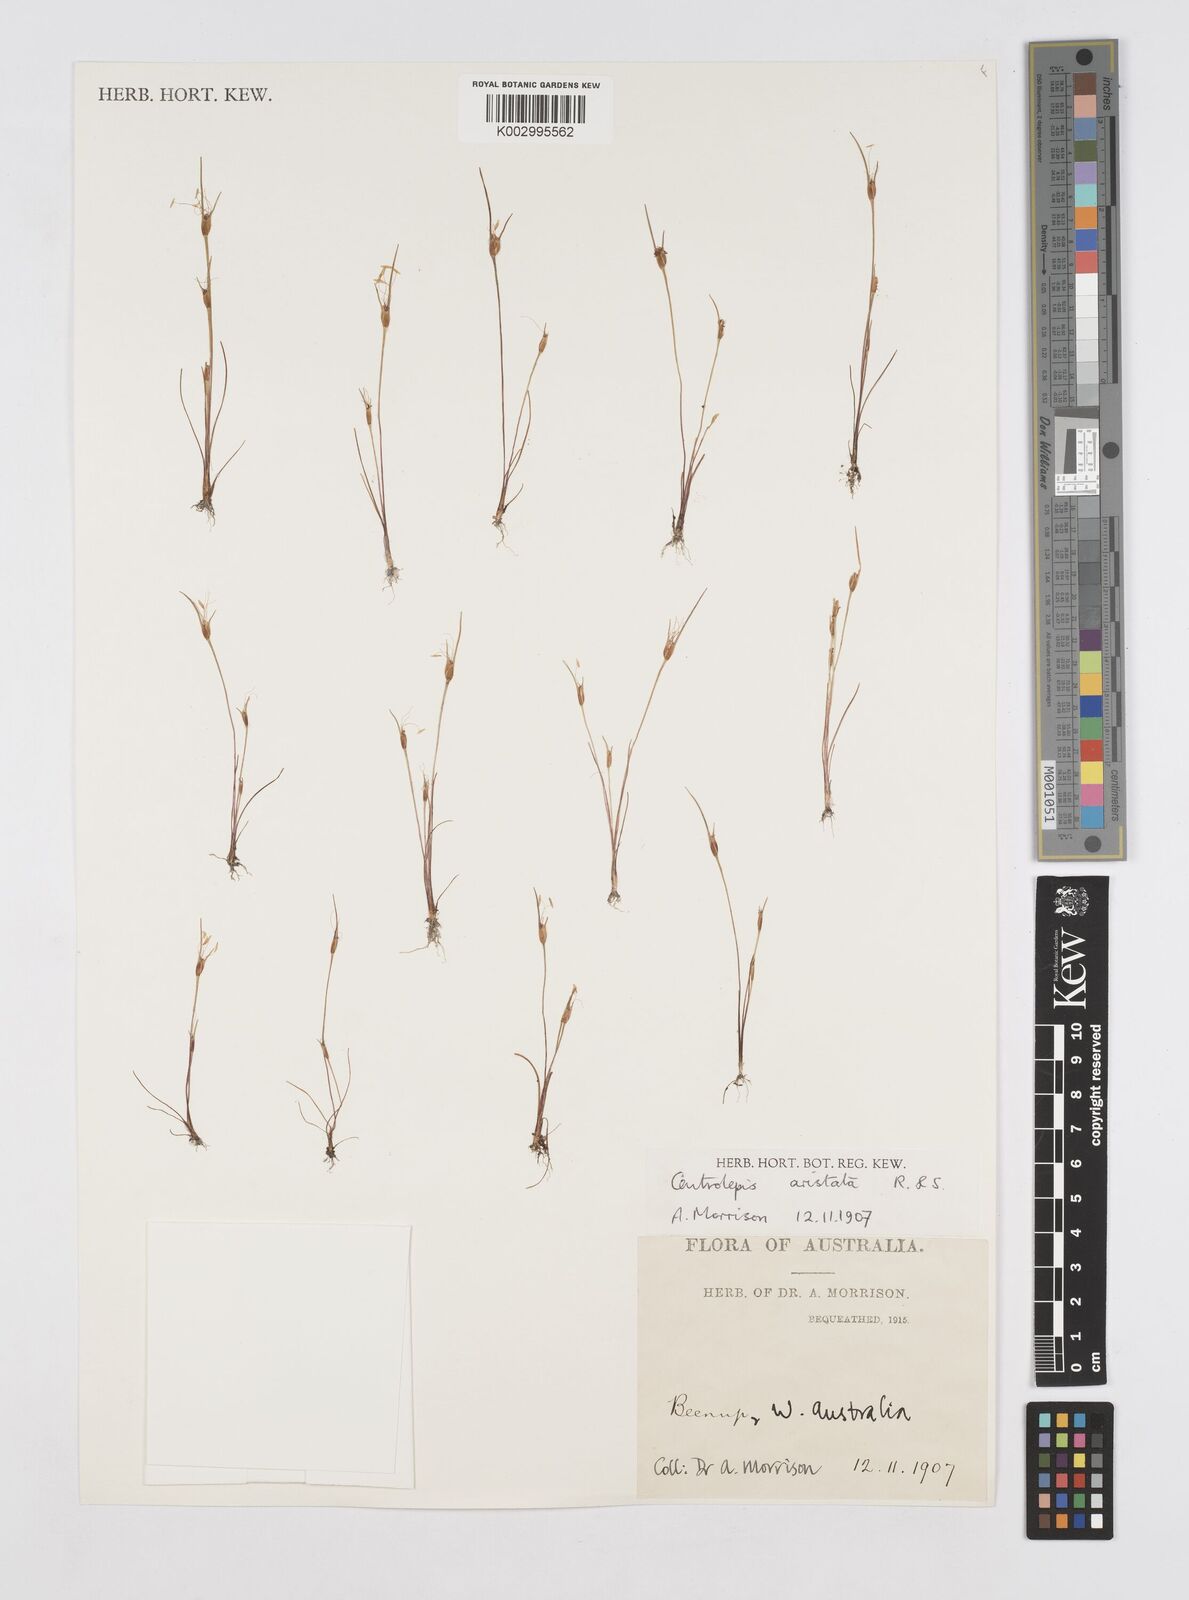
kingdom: Plantae
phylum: Tracheophyta
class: Liliopsida
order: Poales
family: Restionaceae
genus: Centrolepis
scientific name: Centrolepis aristata
